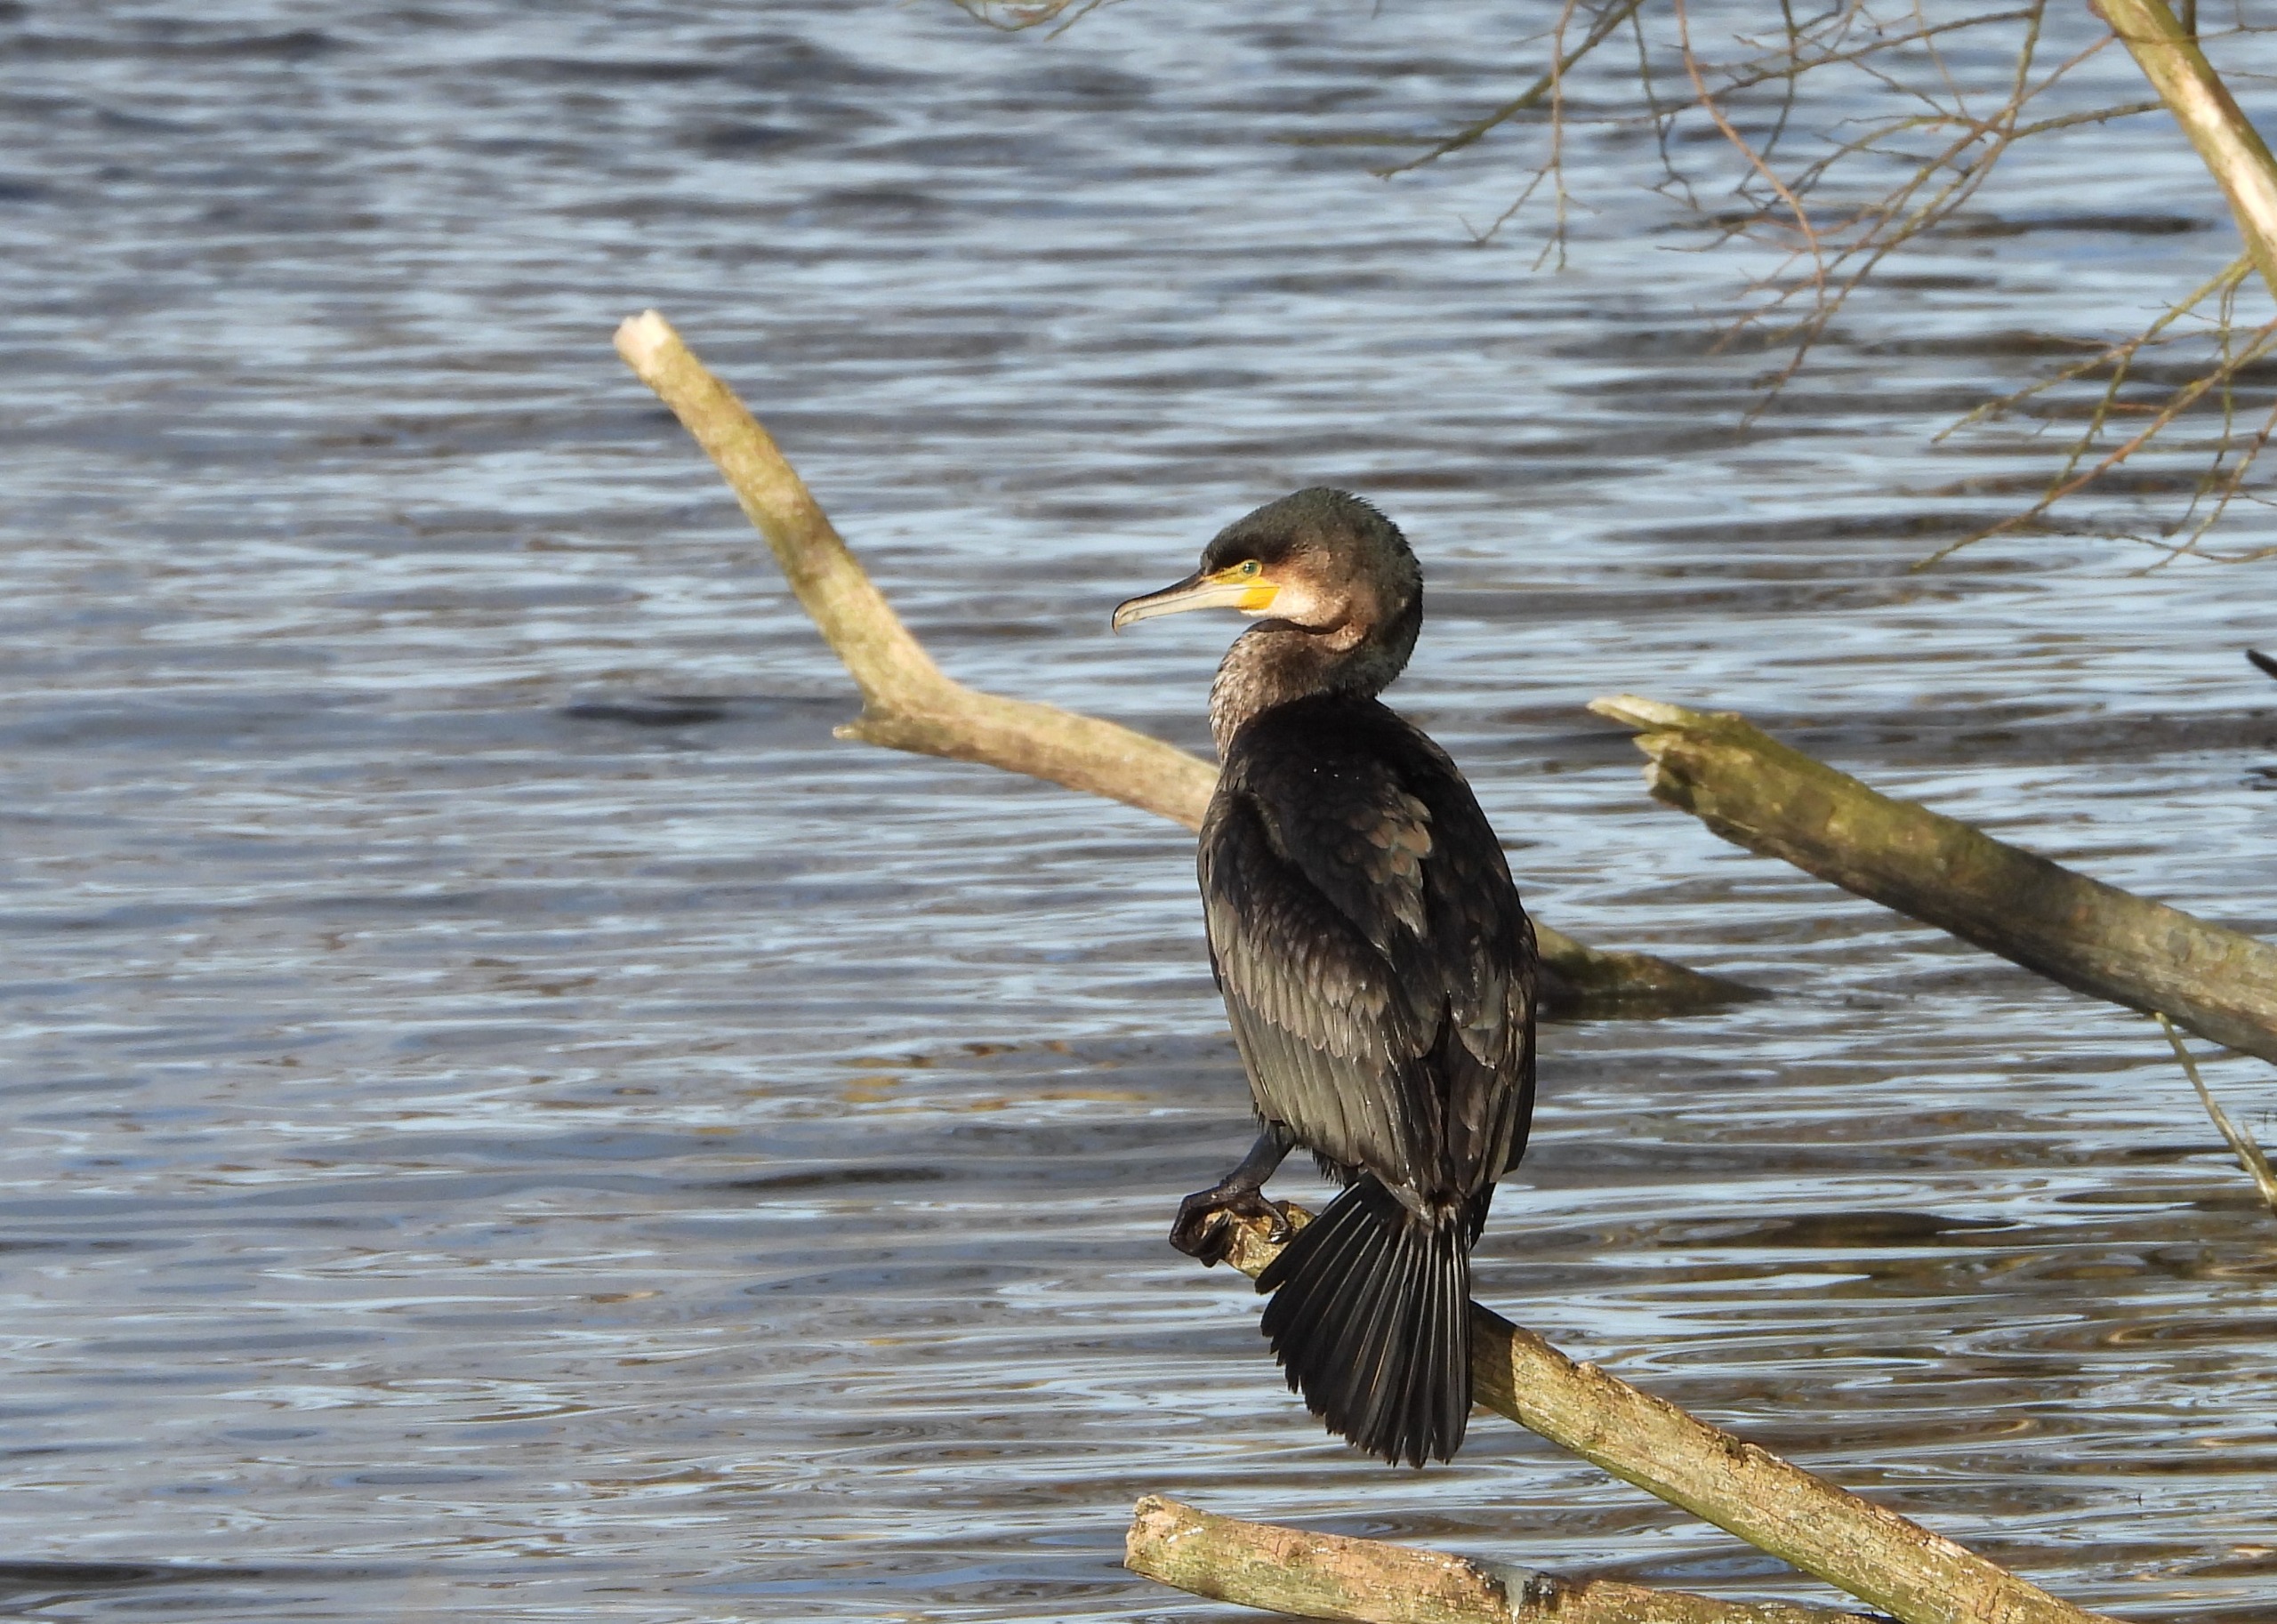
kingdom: Animalia
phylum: Chordata
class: Aves
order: Suliformes
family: Phalacrocoracidae
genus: Phalacrocorax
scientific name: Phalacrocorax carbo
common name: Skarv
